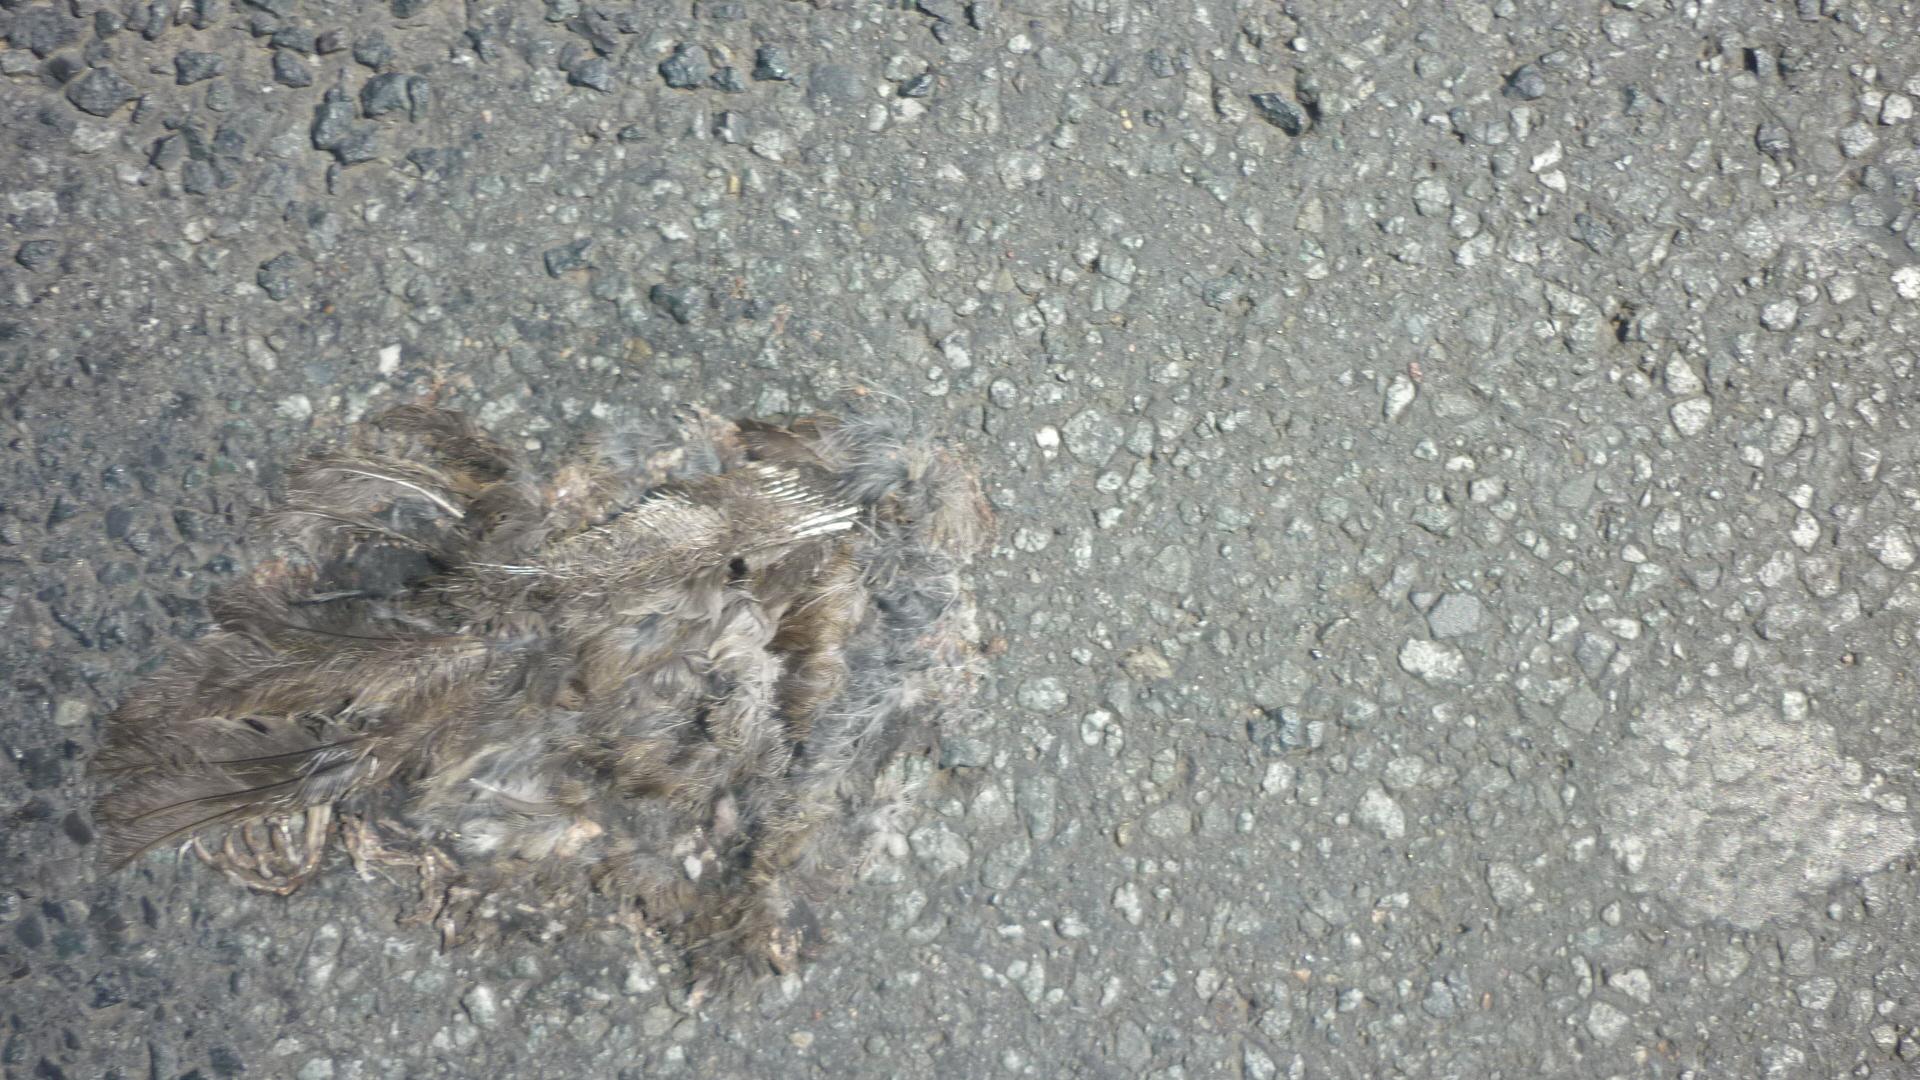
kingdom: Animalia
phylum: Chordata
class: Aves
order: Passeriformes
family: Passeridae
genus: Passer
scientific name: Passer
